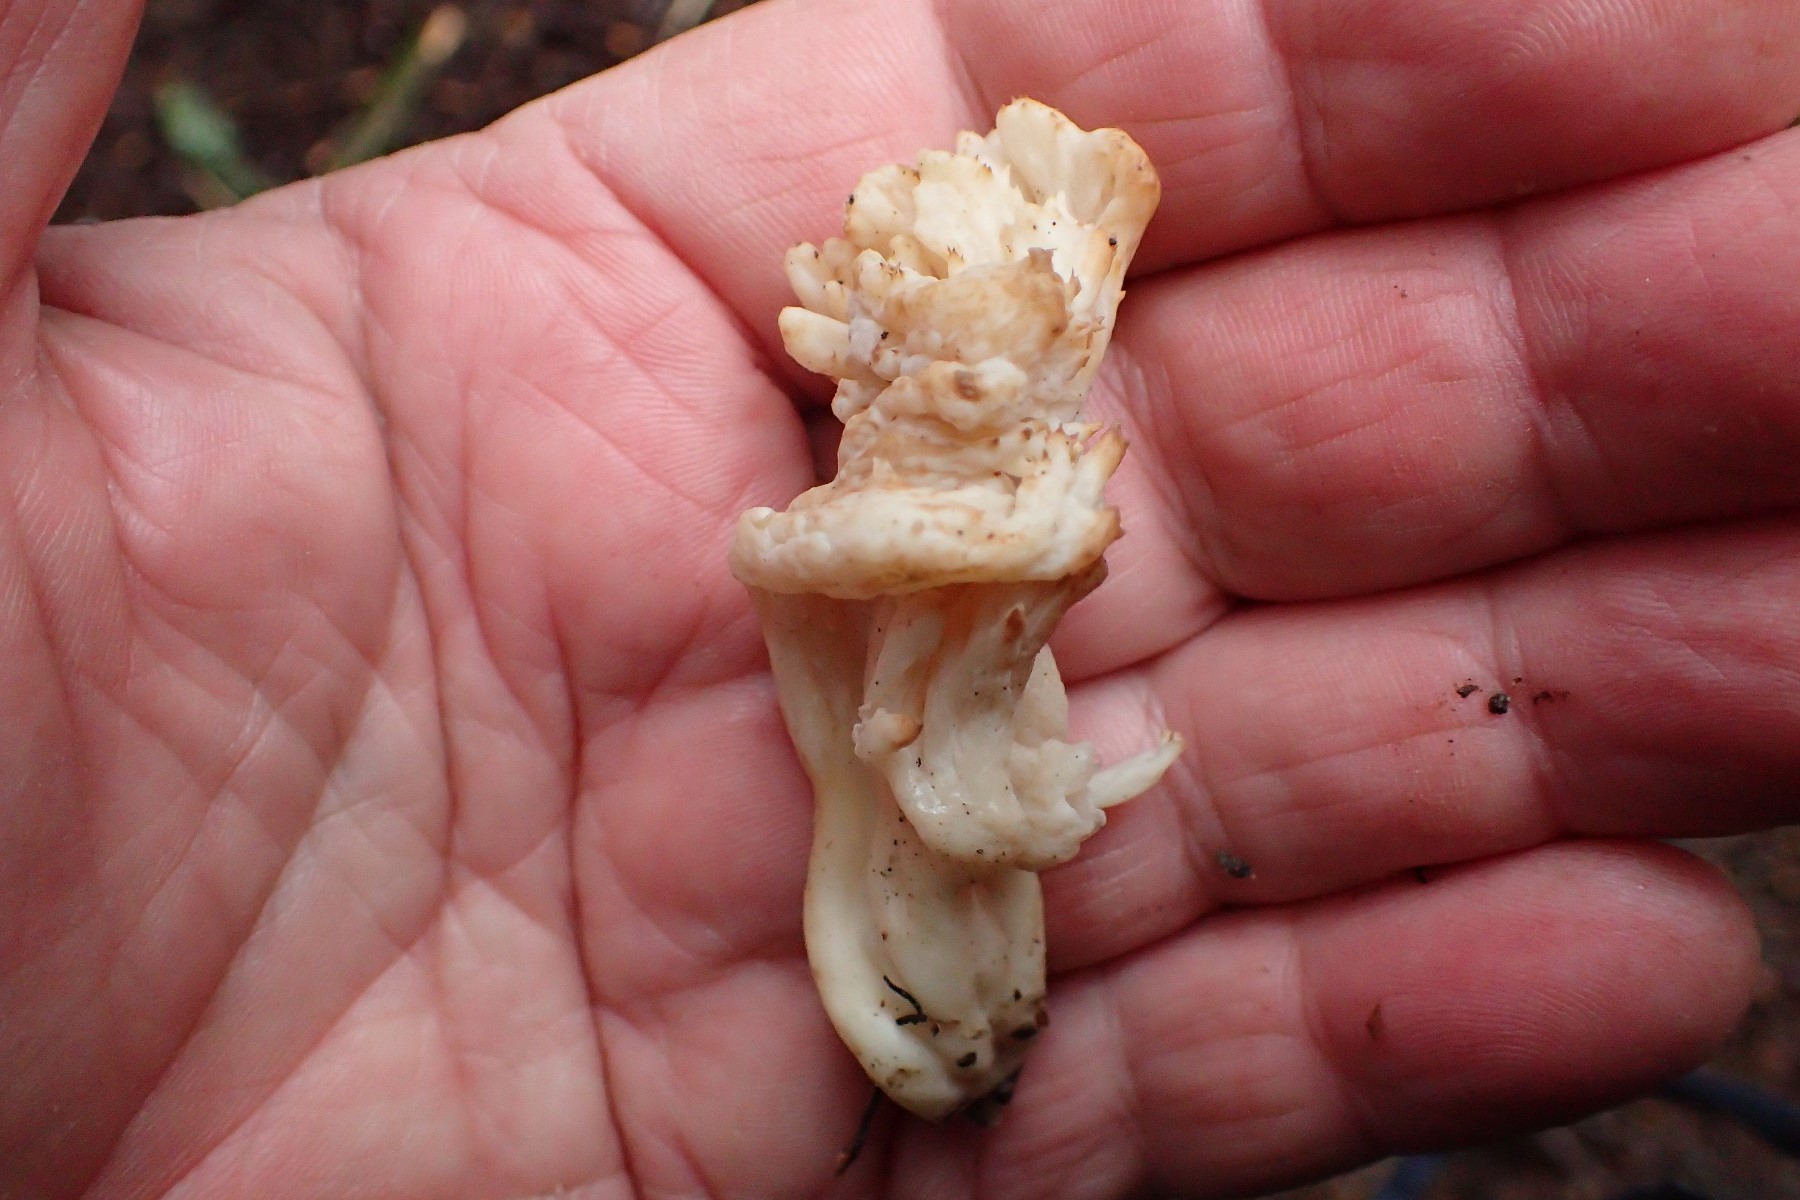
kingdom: Fungi
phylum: Basidiomycota
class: Agaricomycetes
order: Cantharellales
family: Hydnaceae
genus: Clavulina
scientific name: Clavulina
